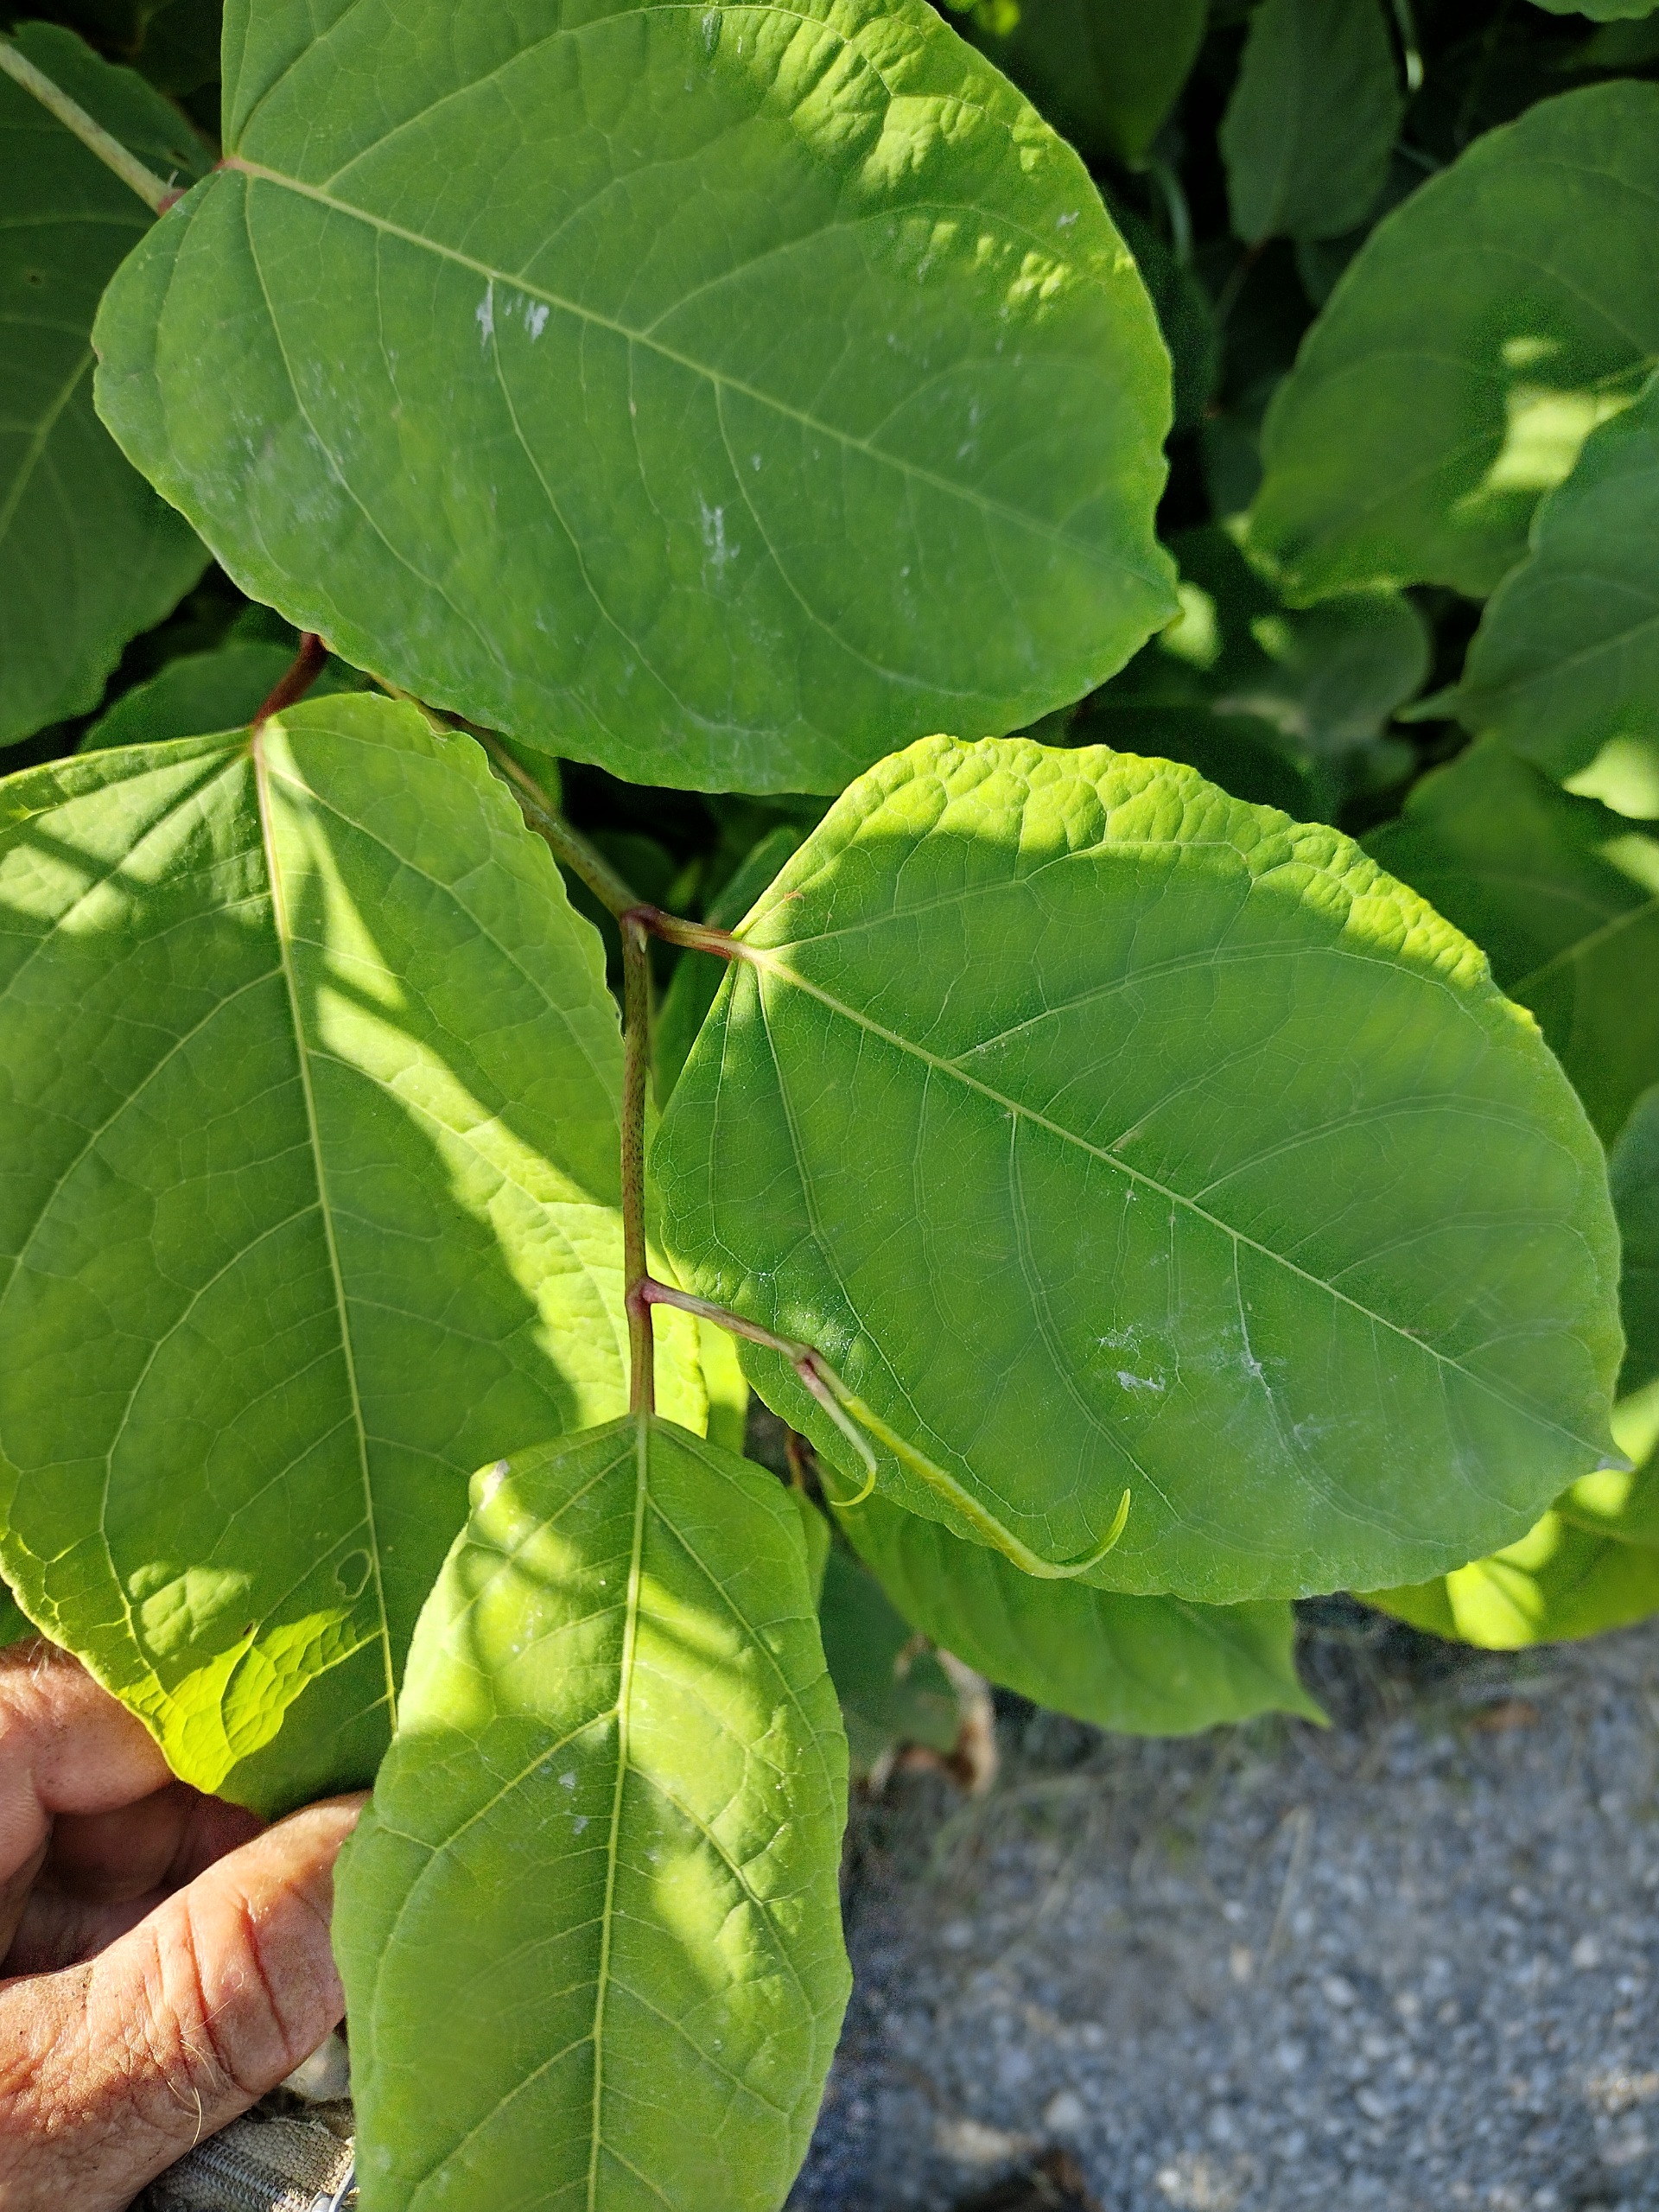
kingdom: Plantae
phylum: Tracheophyta
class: Magnoliopsida
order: Caryophyllales
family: Polygonaceae
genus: Reynoutria
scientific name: Reynoutria japonica
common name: Japan-pileurt
